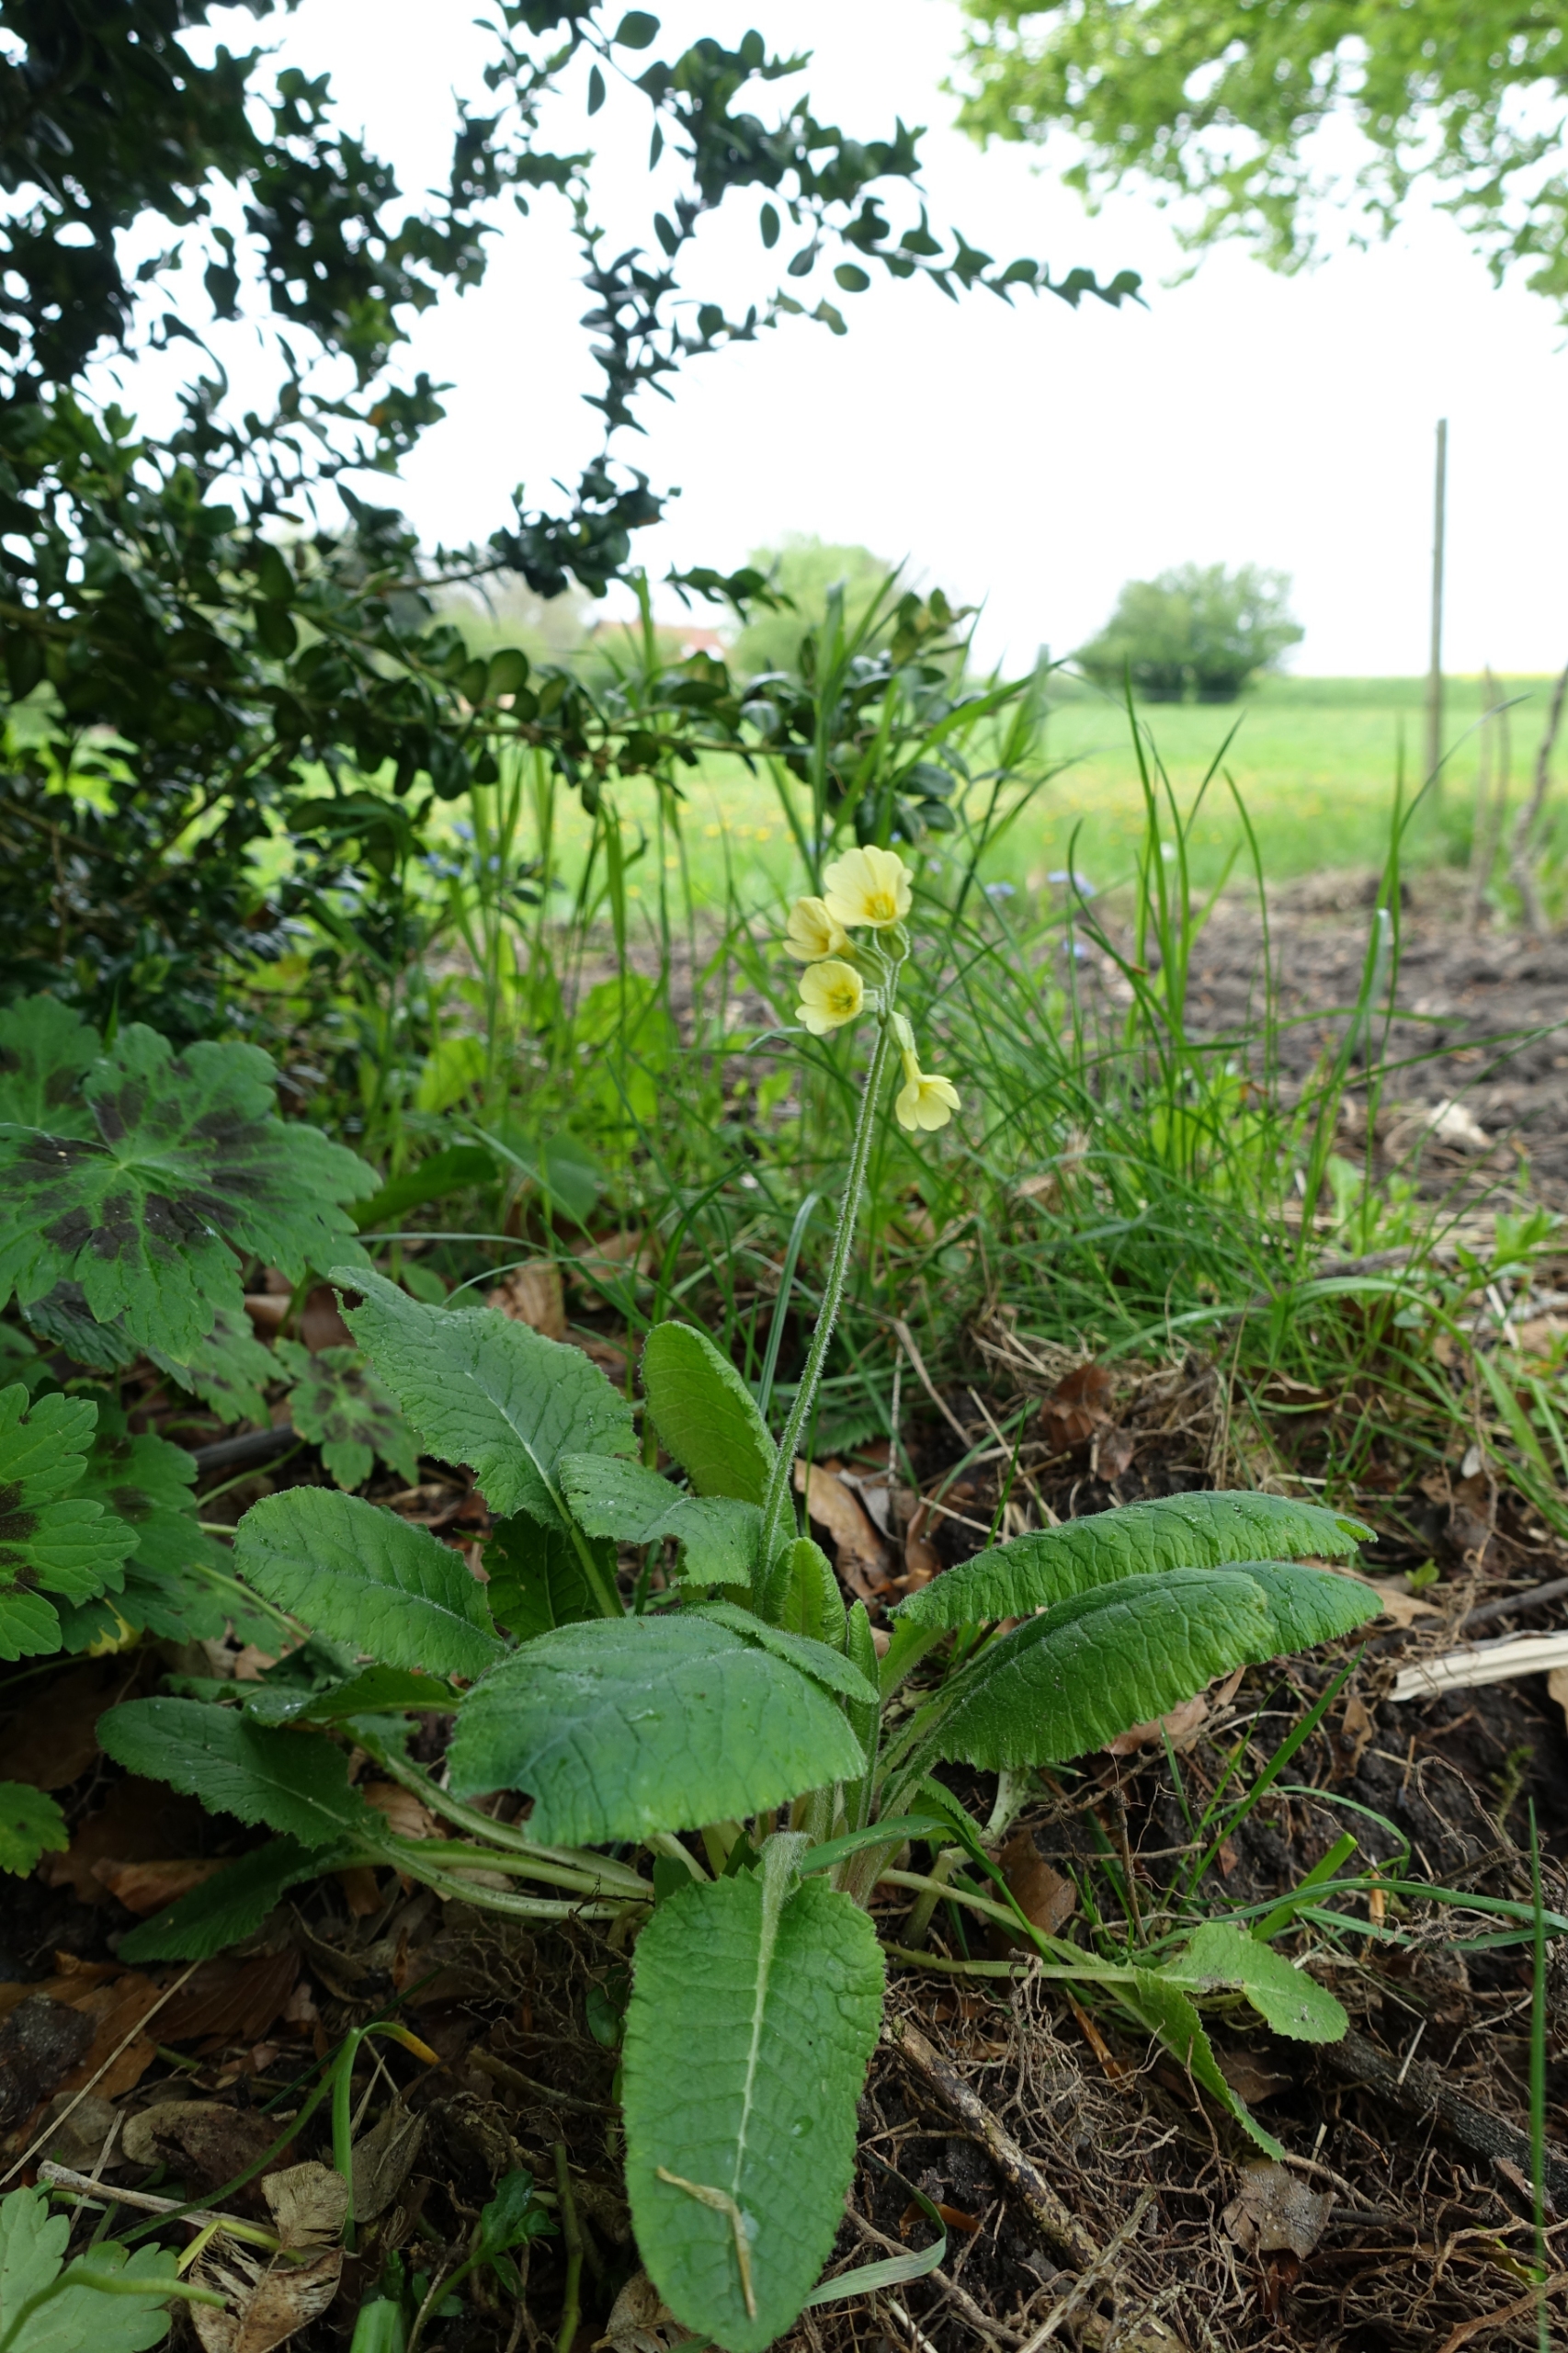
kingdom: Plantae
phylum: Tracheophyta
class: Magnoliopsida
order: Ericales
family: Primulaceae
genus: Primula
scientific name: Primula elatior
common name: Fladkravet kodriver
